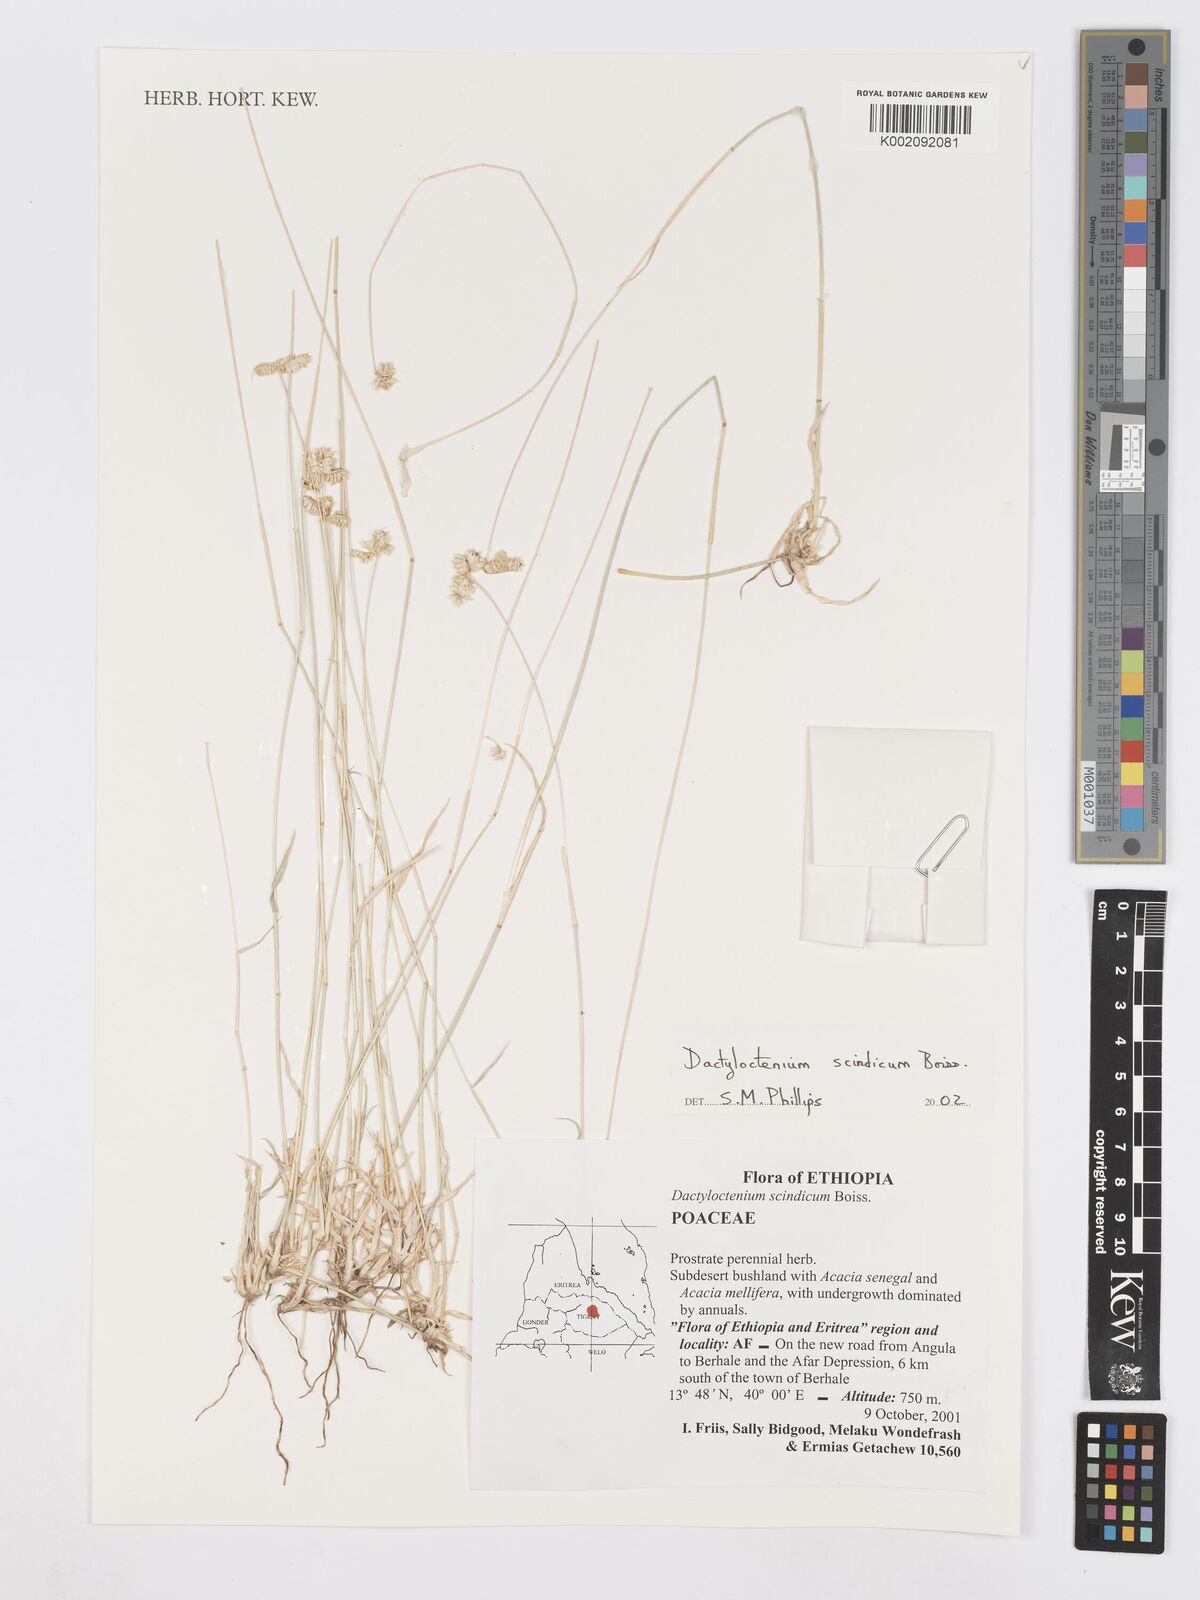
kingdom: Plantae
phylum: Tracheophyta
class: Liliopsida
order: Poales
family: Poaceae
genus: Dactyloctenium
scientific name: Dactyloctenium scindicum
